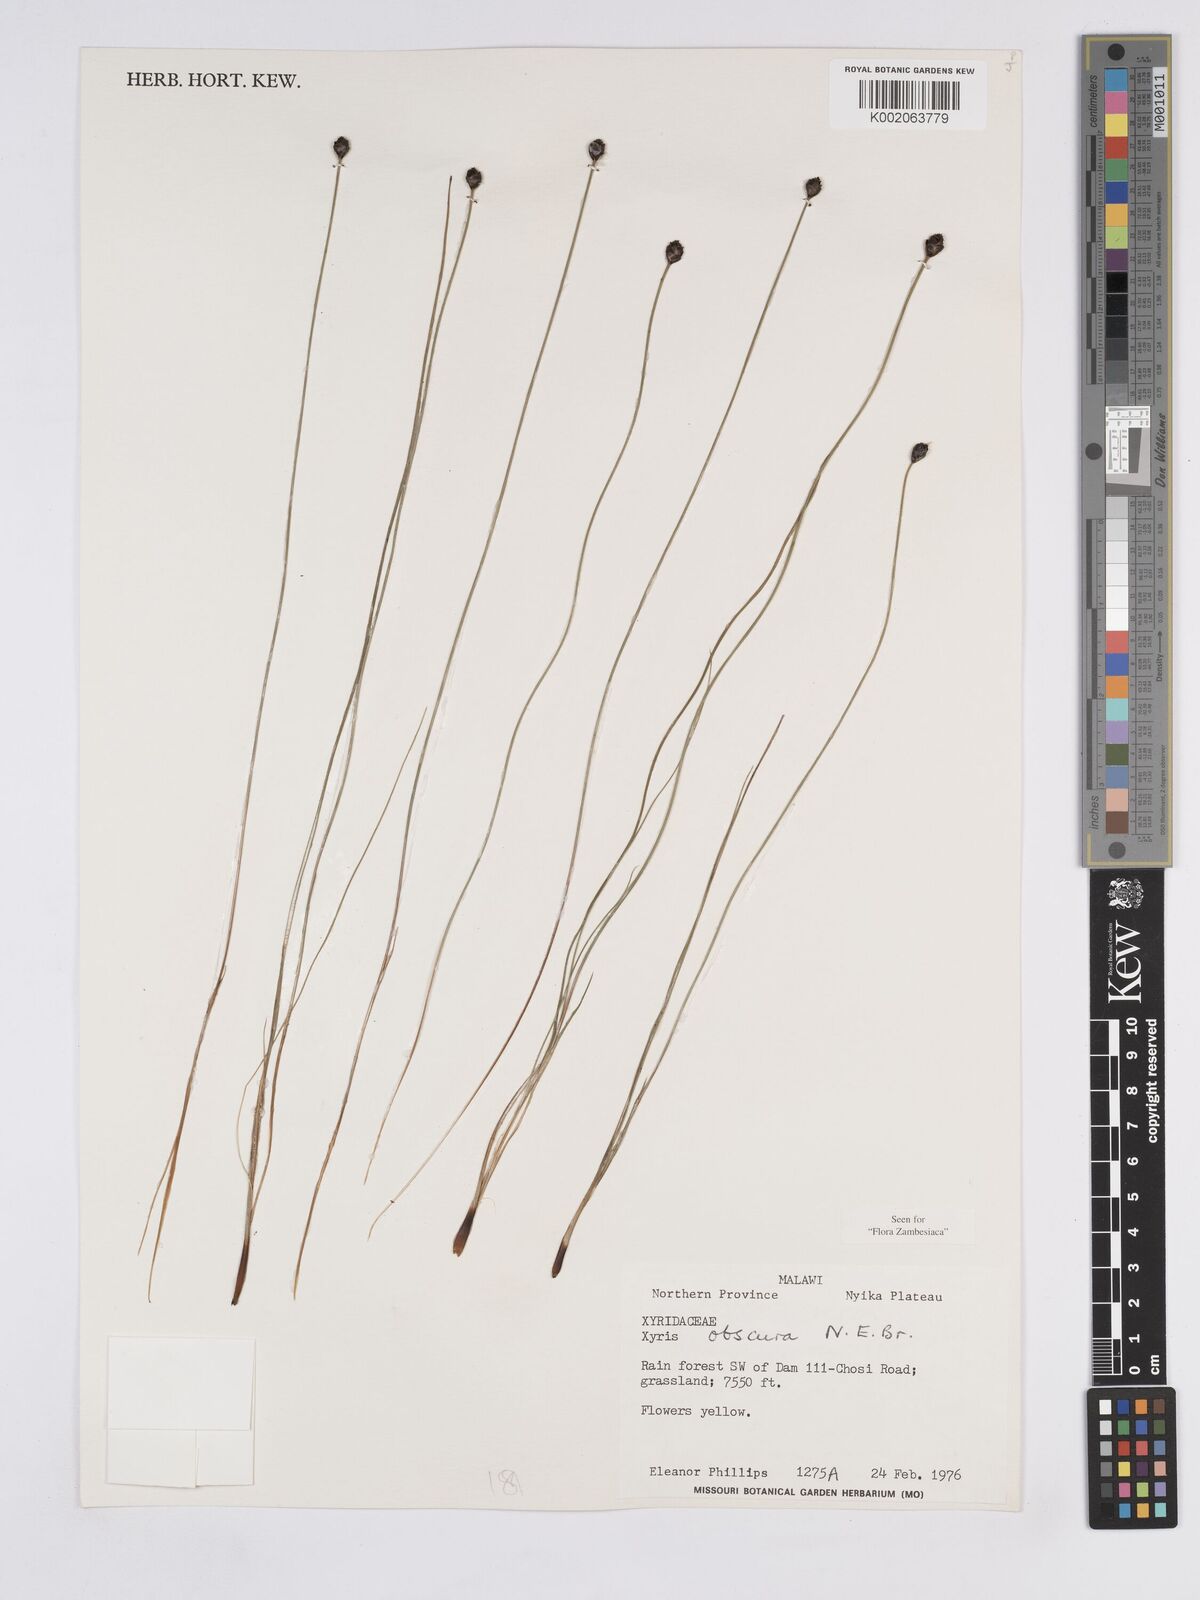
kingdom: Plantae
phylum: Tracheophyta
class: Liliopsida
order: Poales
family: Xyridaceae
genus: Xyris
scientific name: Xyris obscura
